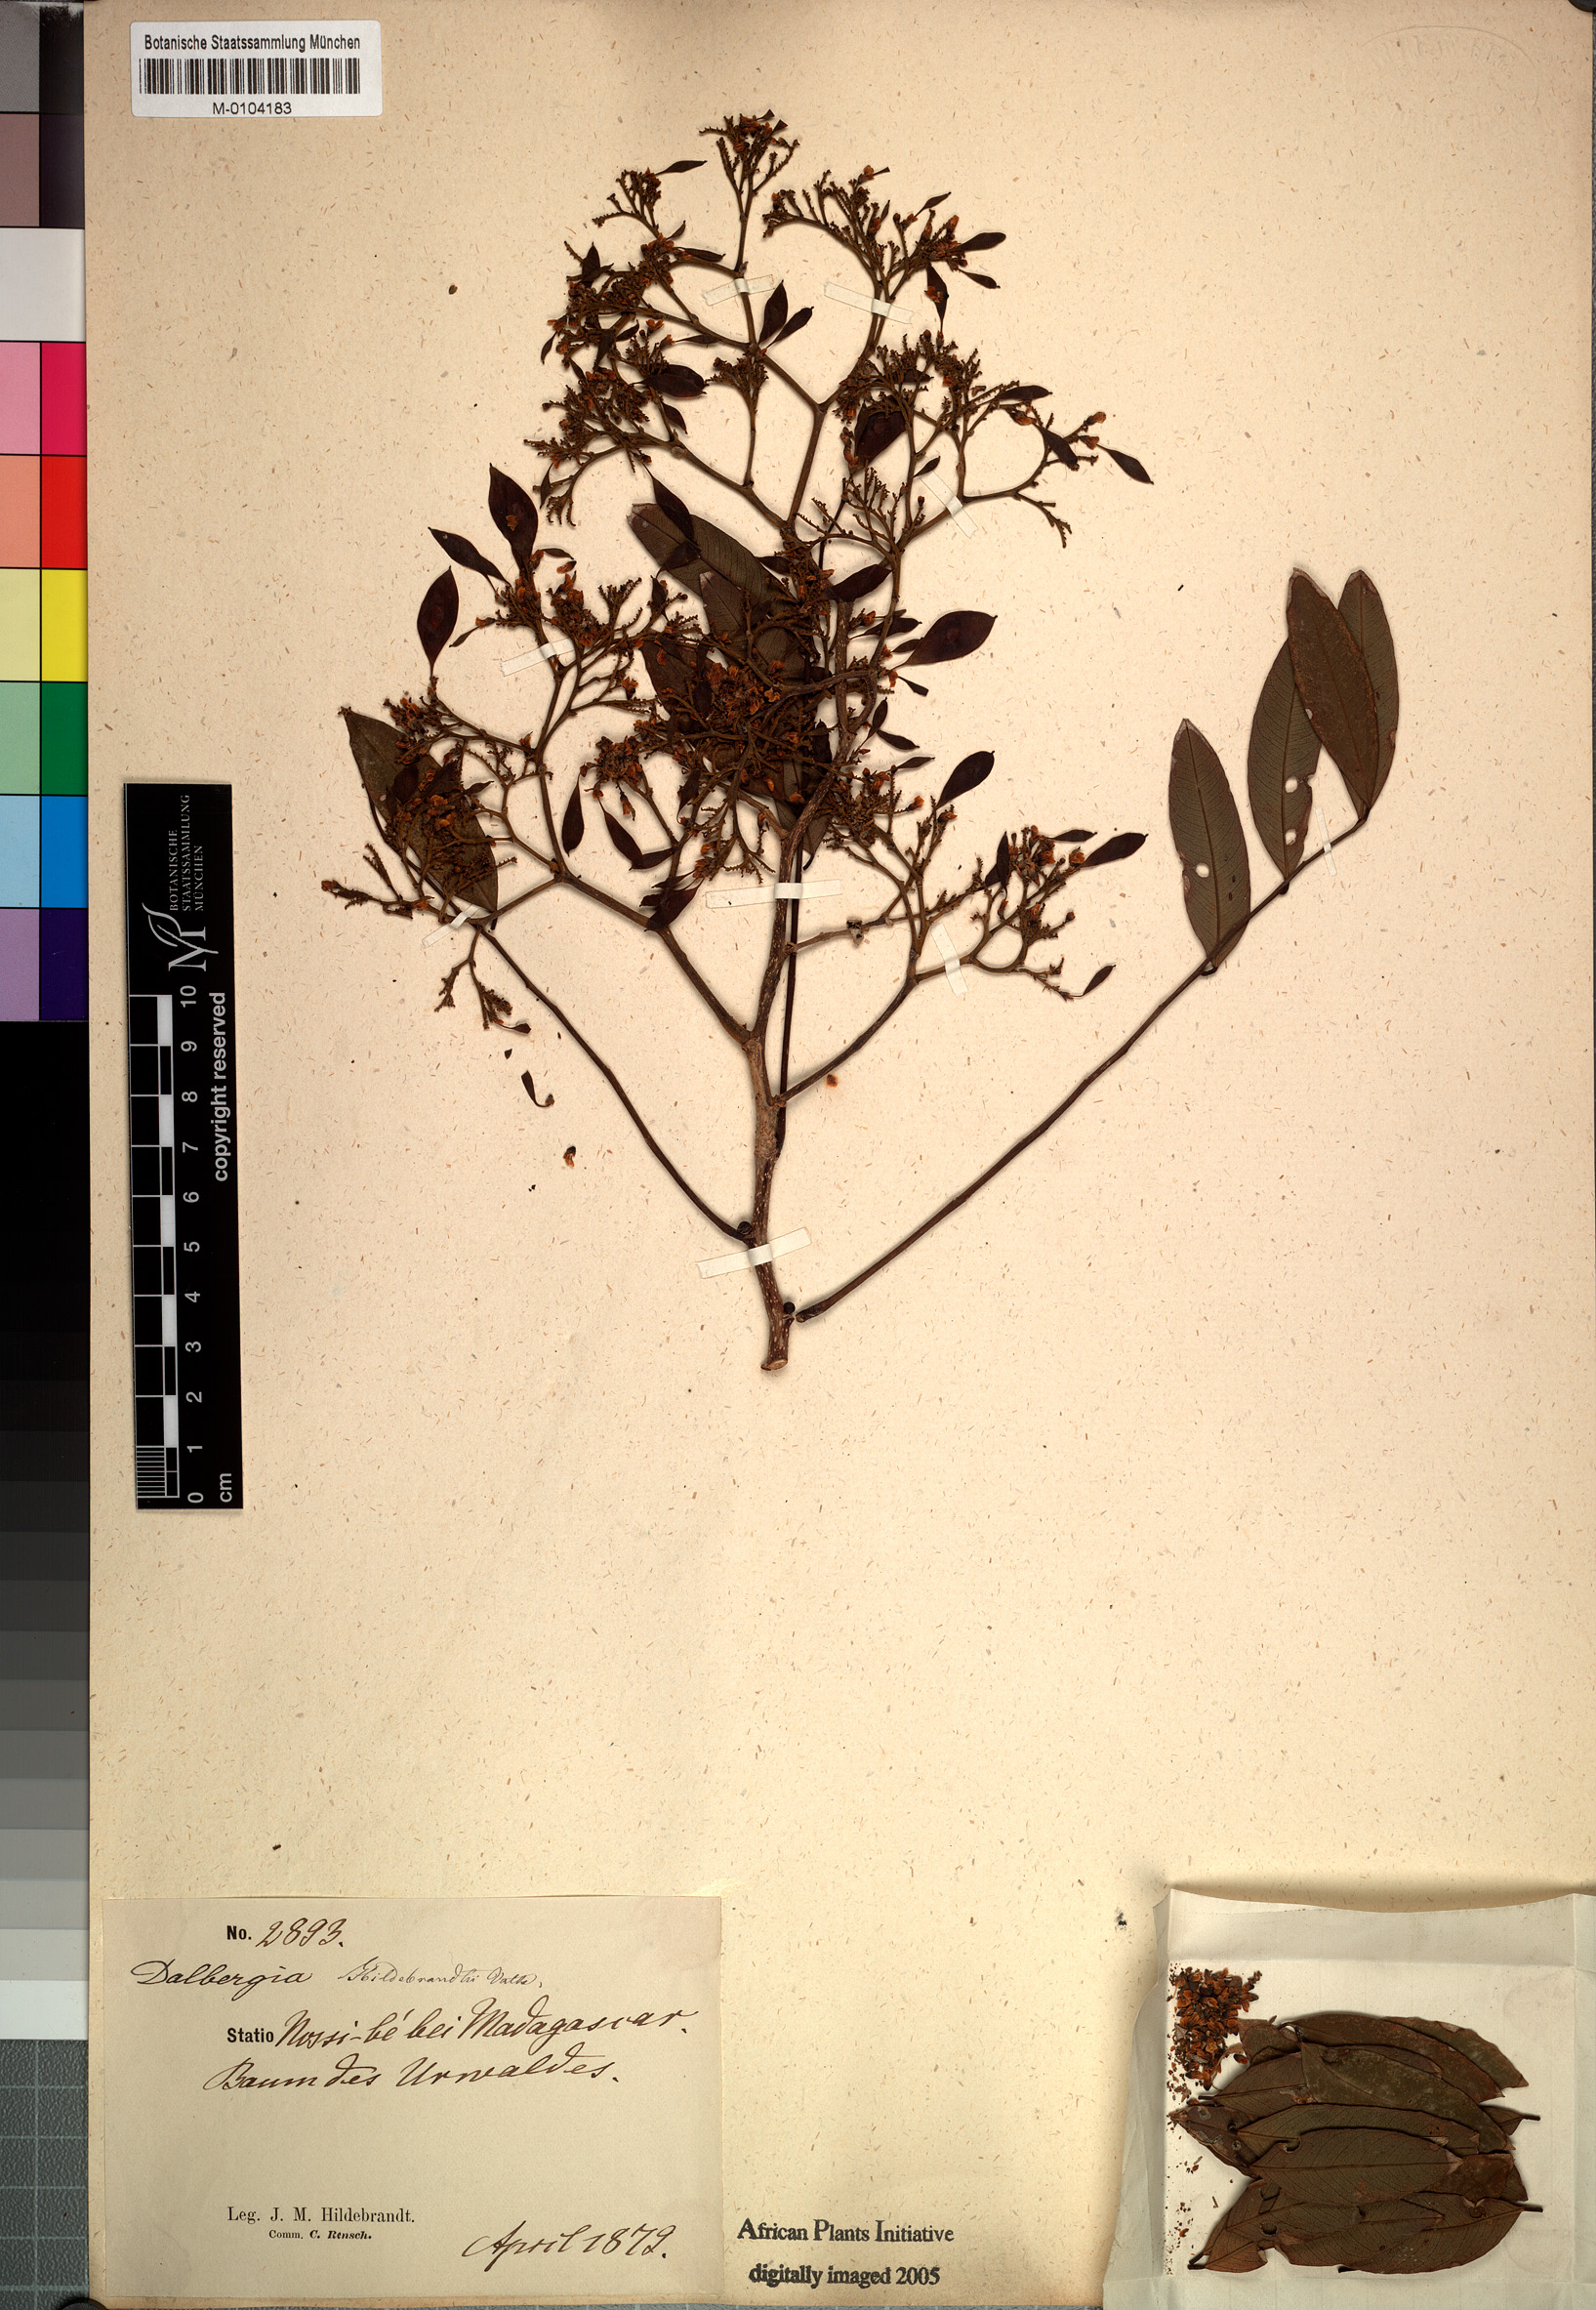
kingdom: Plantae
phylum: Tracheophyta
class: Magnoliopsida
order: Fabales
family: Fabaceae
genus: Dalbergia
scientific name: Dalbergia hildebrandtii
